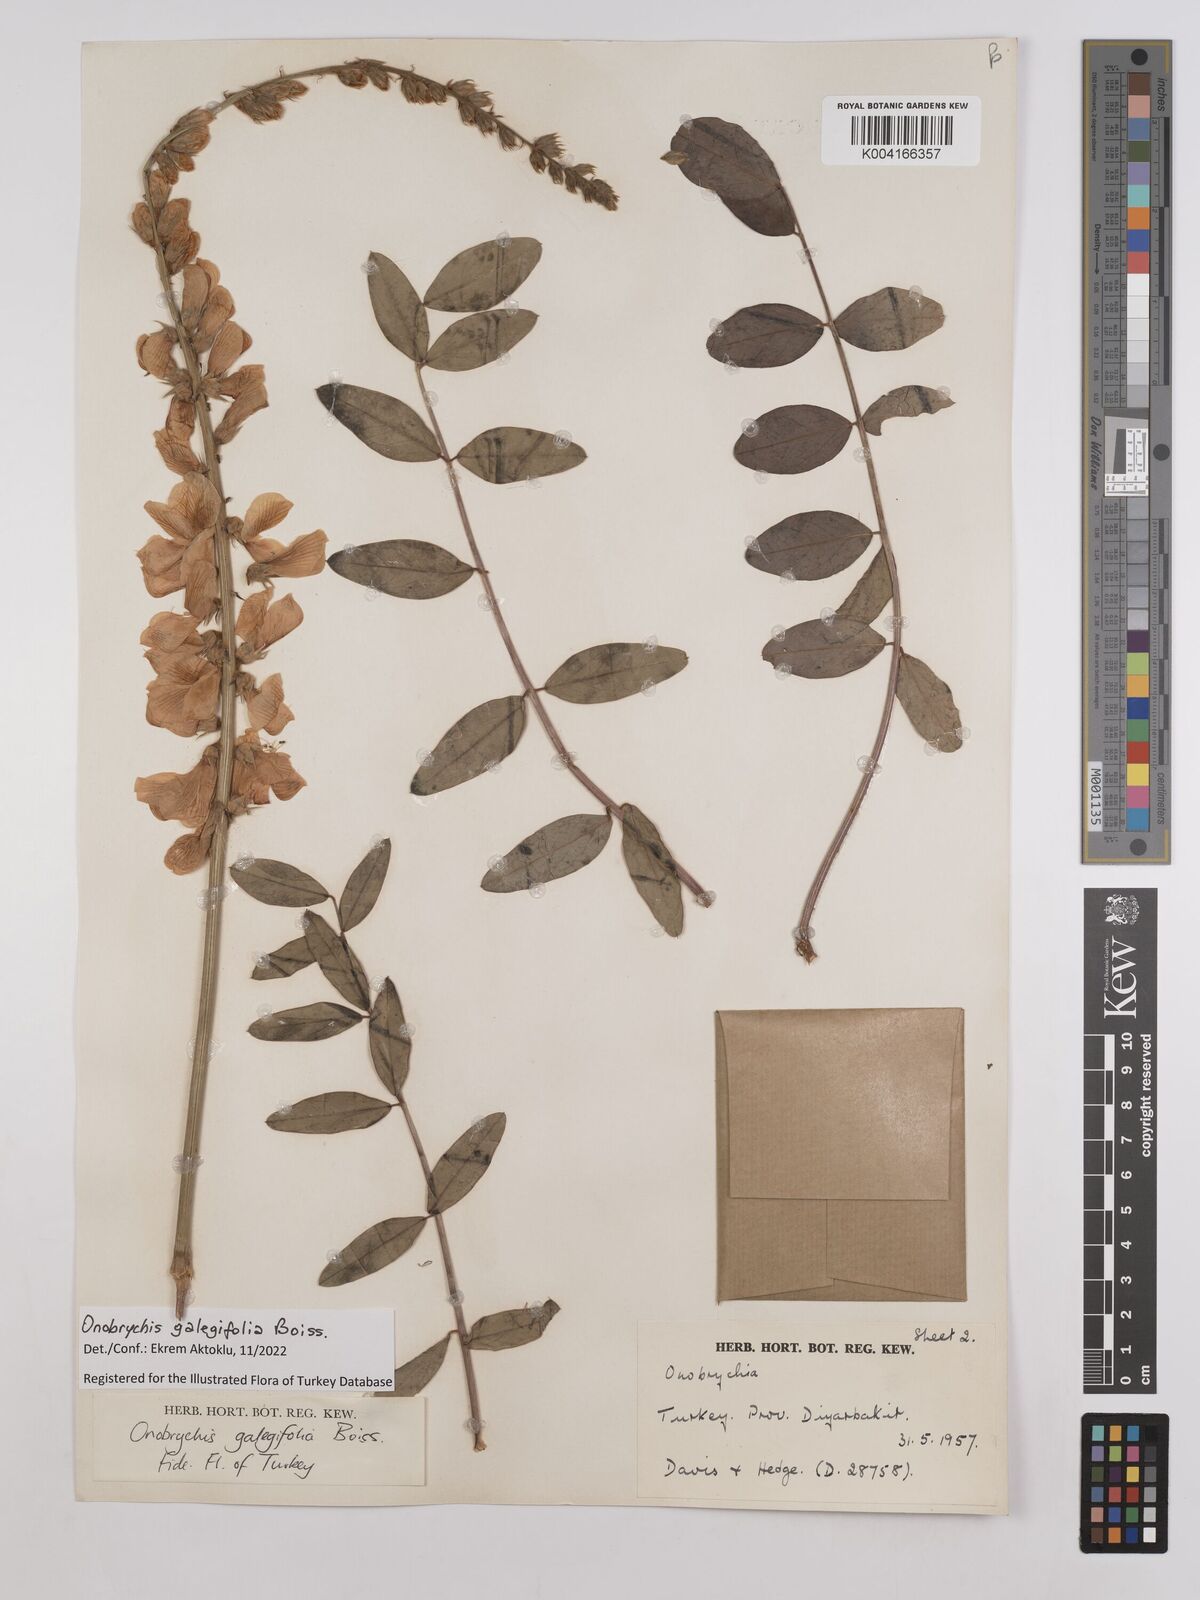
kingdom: Plantae
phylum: Tracheophyta
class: Magnoliopsida
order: Fabales
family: Fabaceae
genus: Onobrychis
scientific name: Onobrychis galegifolia
